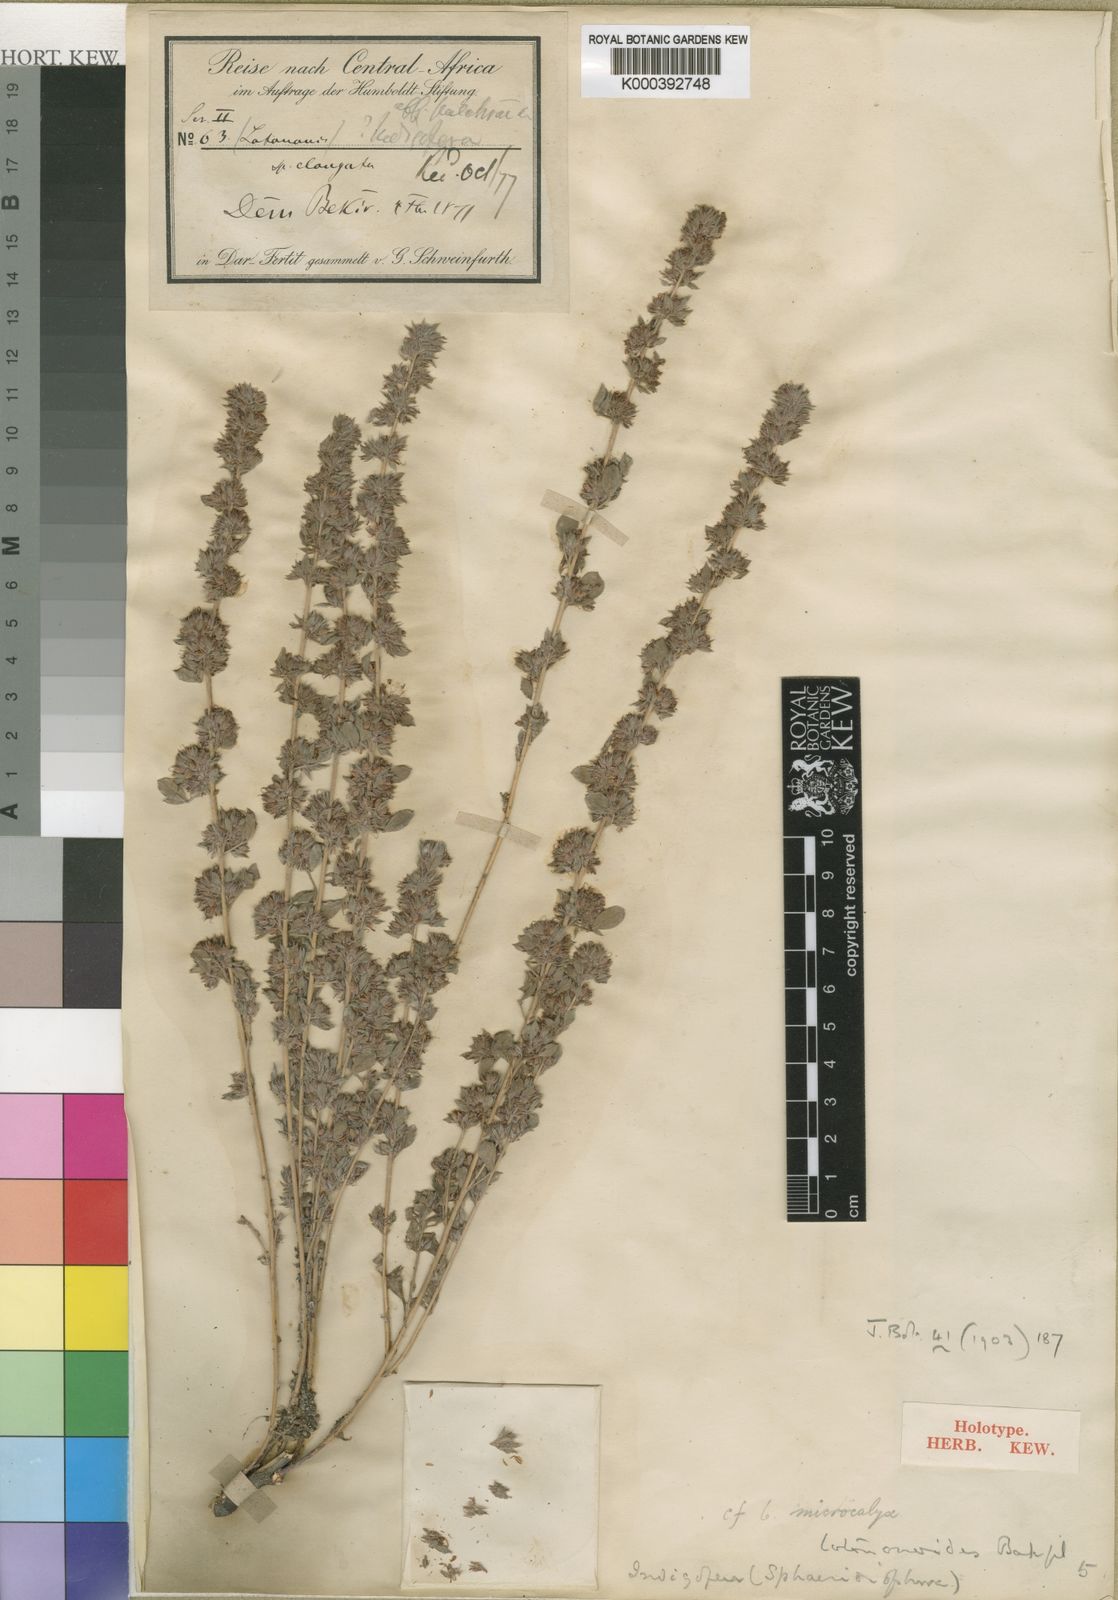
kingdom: Plantae
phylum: Tracheophyta
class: Magnoliopsida
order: Fabales
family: Fabaceae
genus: Indigofera
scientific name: Indigofera lotononoides
